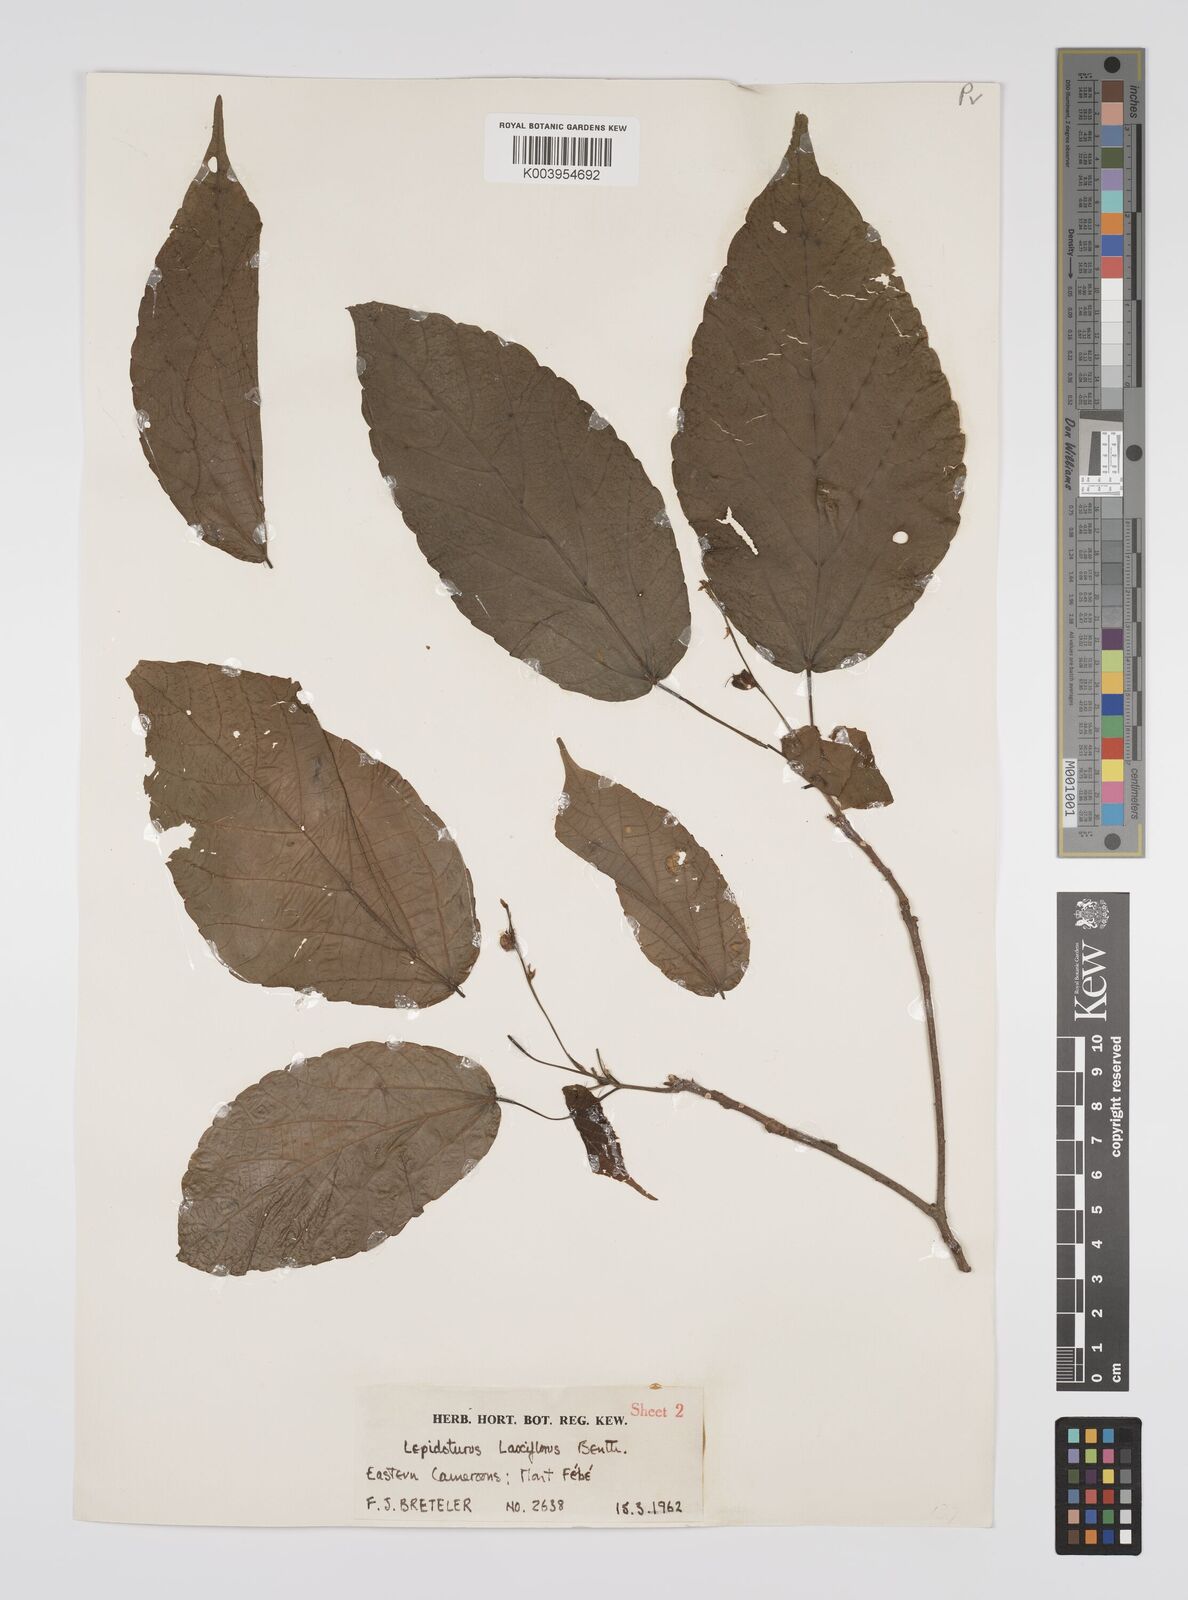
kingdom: Plantae
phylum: Tracheophyta
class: Magnoliopsida
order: Malpighiales
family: Euphorbiaceae
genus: Alchornea
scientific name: Alchornea laxiflora
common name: Lowveld bead-string
